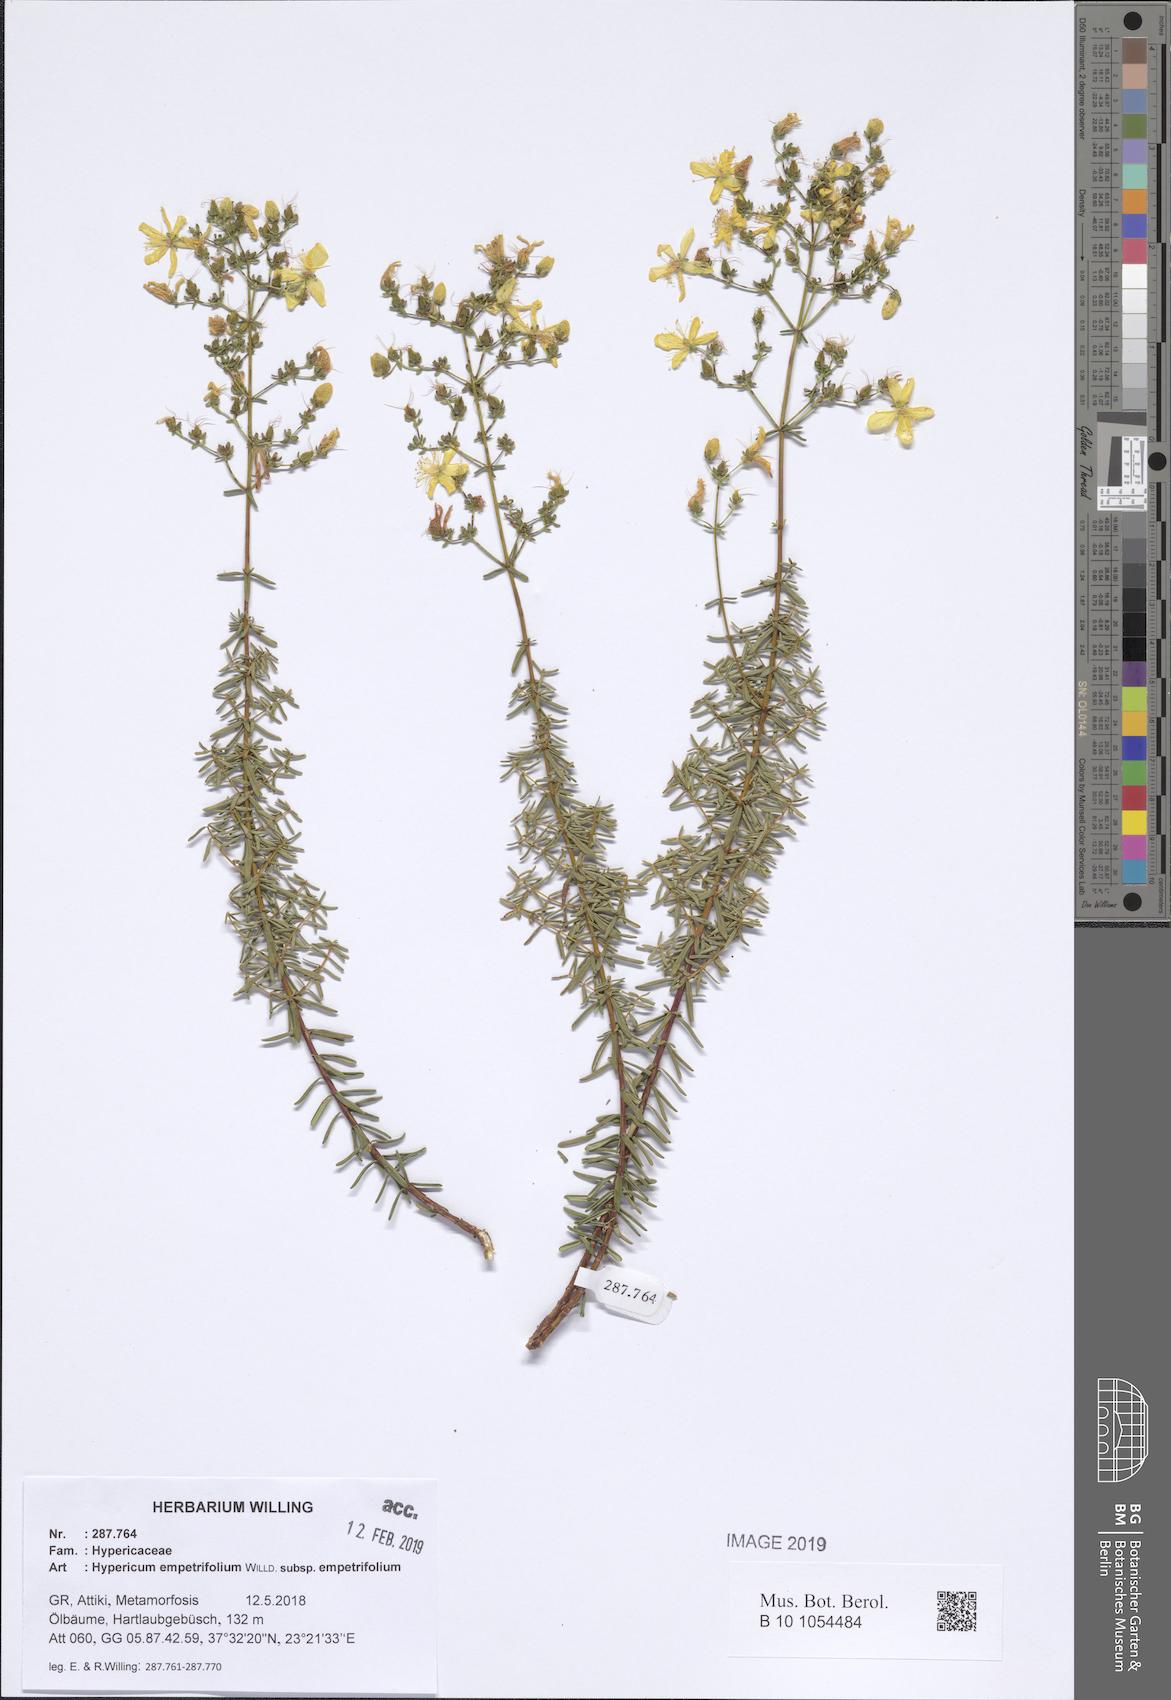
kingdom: Plantae
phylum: Tracheophyta
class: Magnoliopsida
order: Malpighiales
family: Hypericaceae
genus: Hypericum
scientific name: Hypericum empetrifolium
